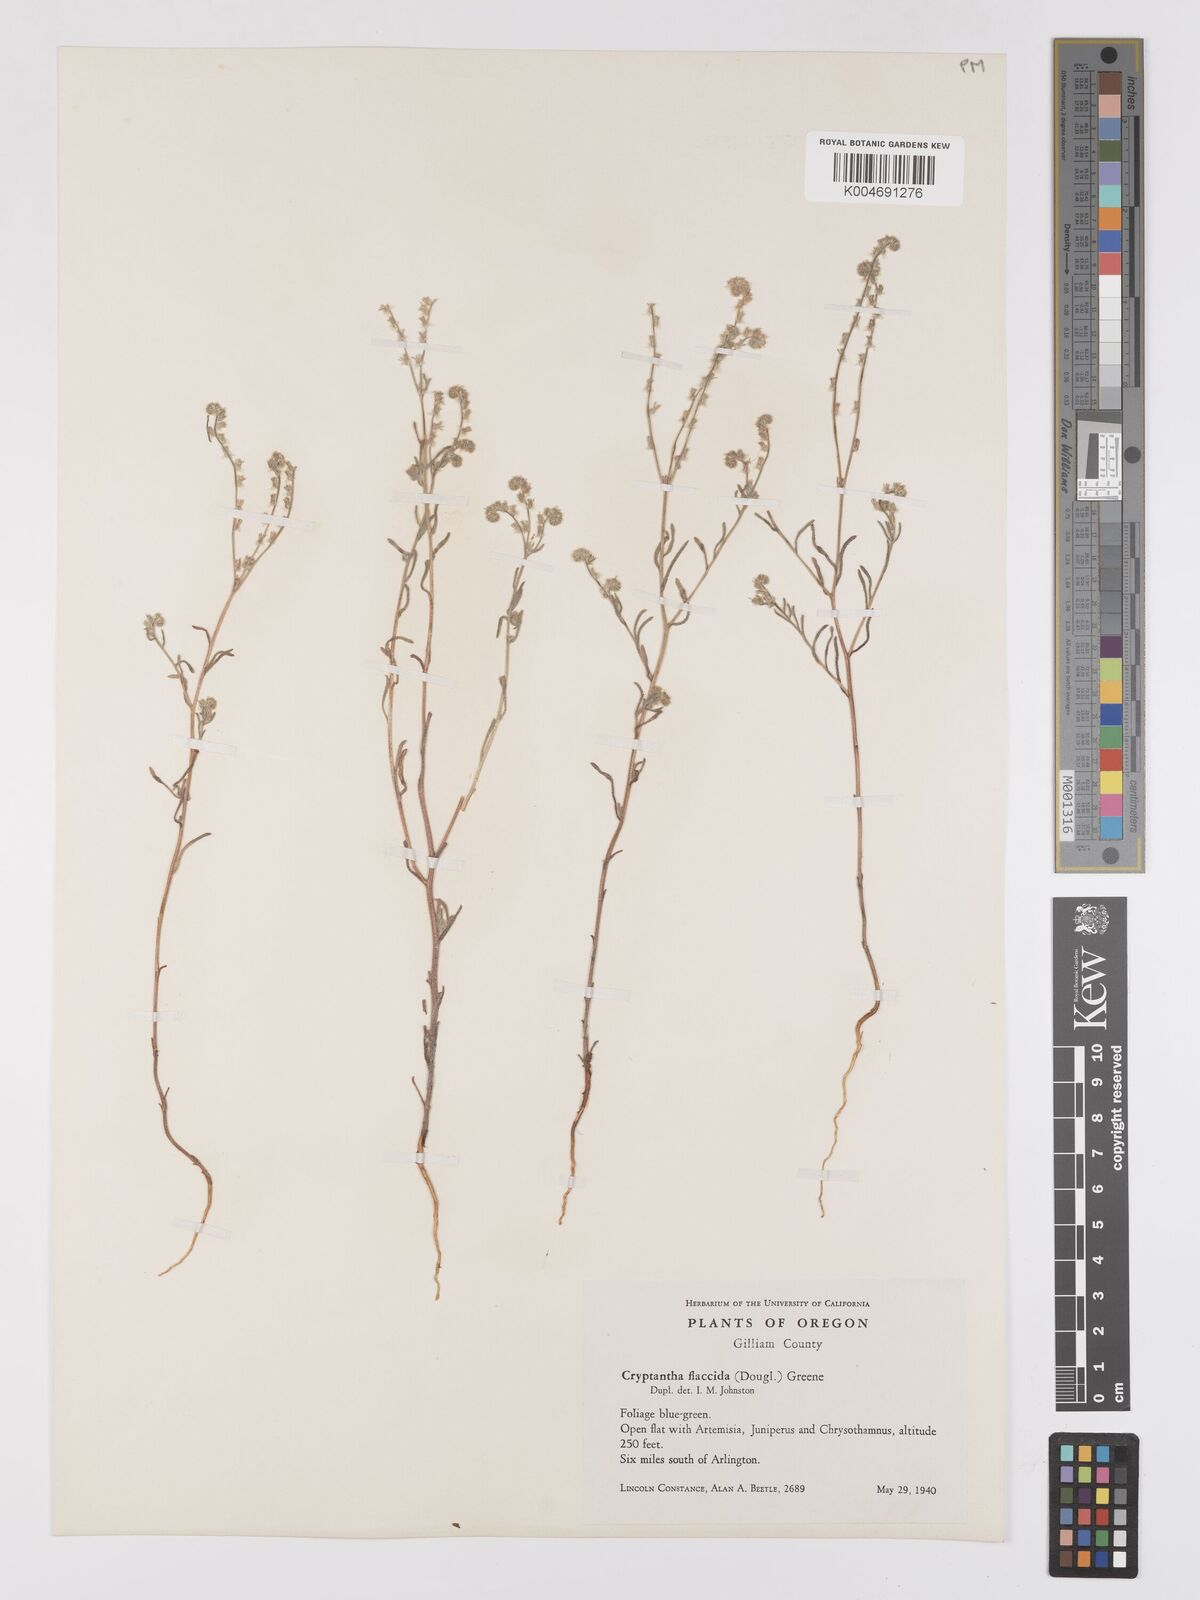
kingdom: Plantae
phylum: Tracheophyta
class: Magnoliopsida
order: Boraginales
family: Boraginaceae
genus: Cryptantha
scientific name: Cryptantha flaccida
